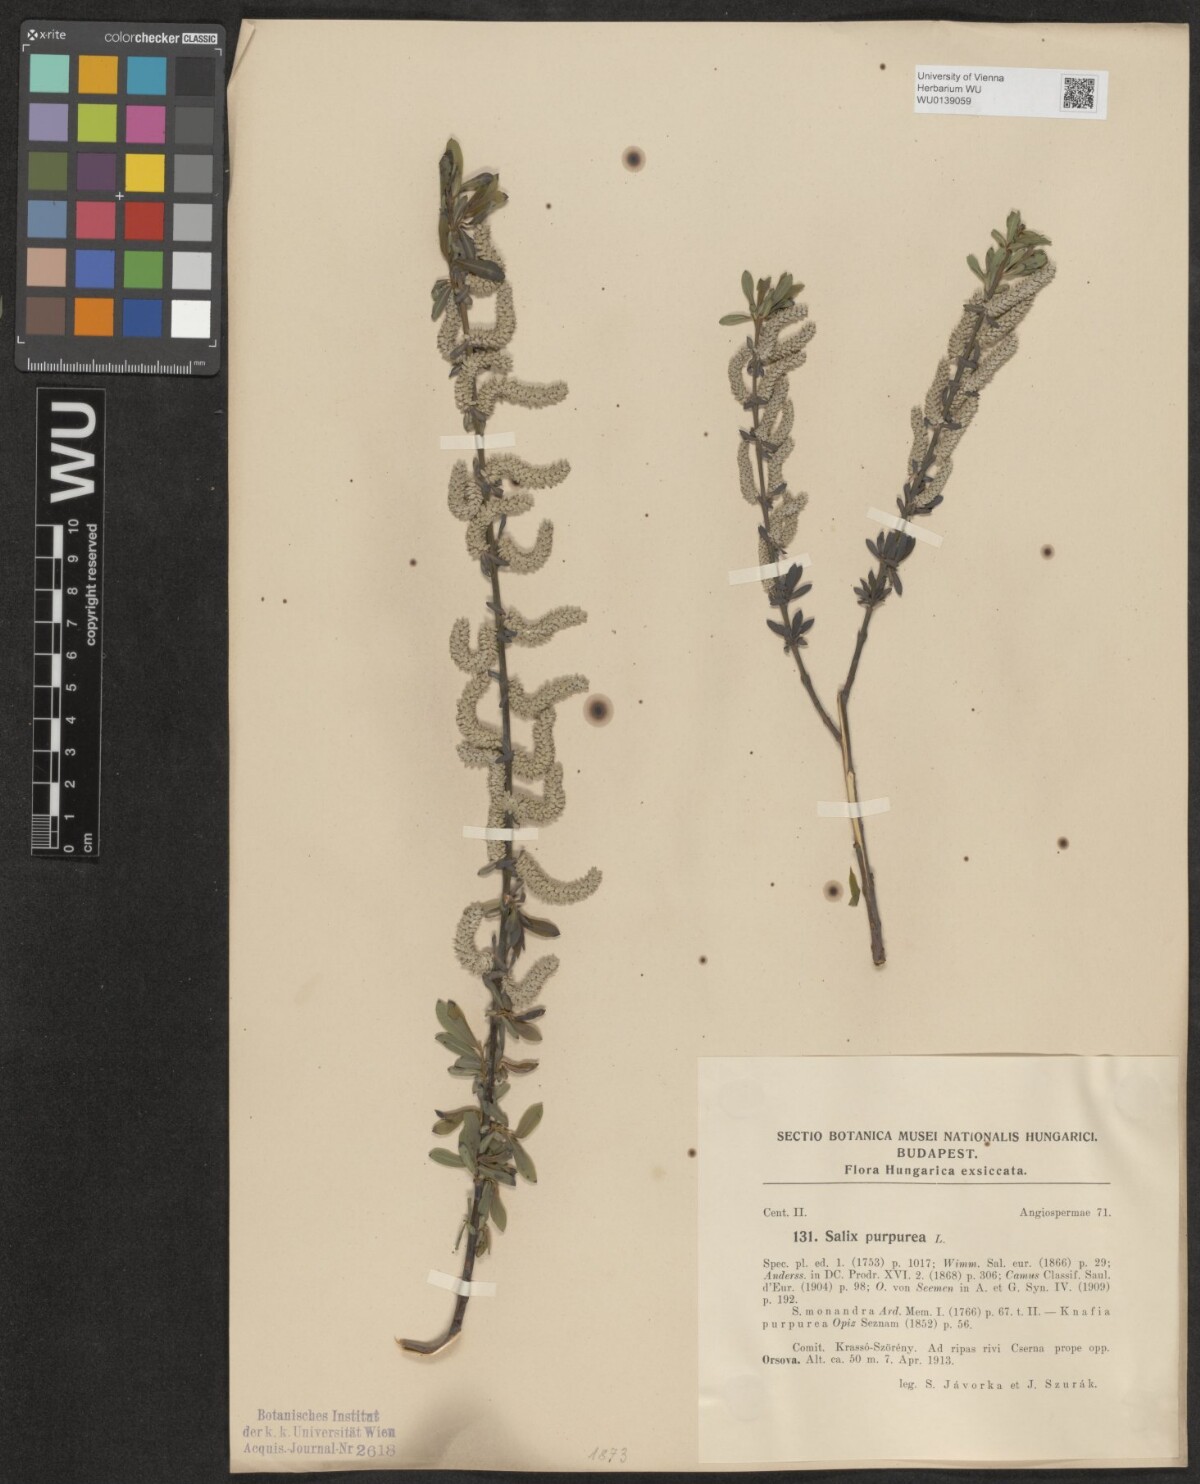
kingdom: Plantae
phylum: Tracheophyta
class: Magnoliopsida
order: Malpighiales
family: Salicaceae
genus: Salix
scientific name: Salix purpurea
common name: Purple willow
